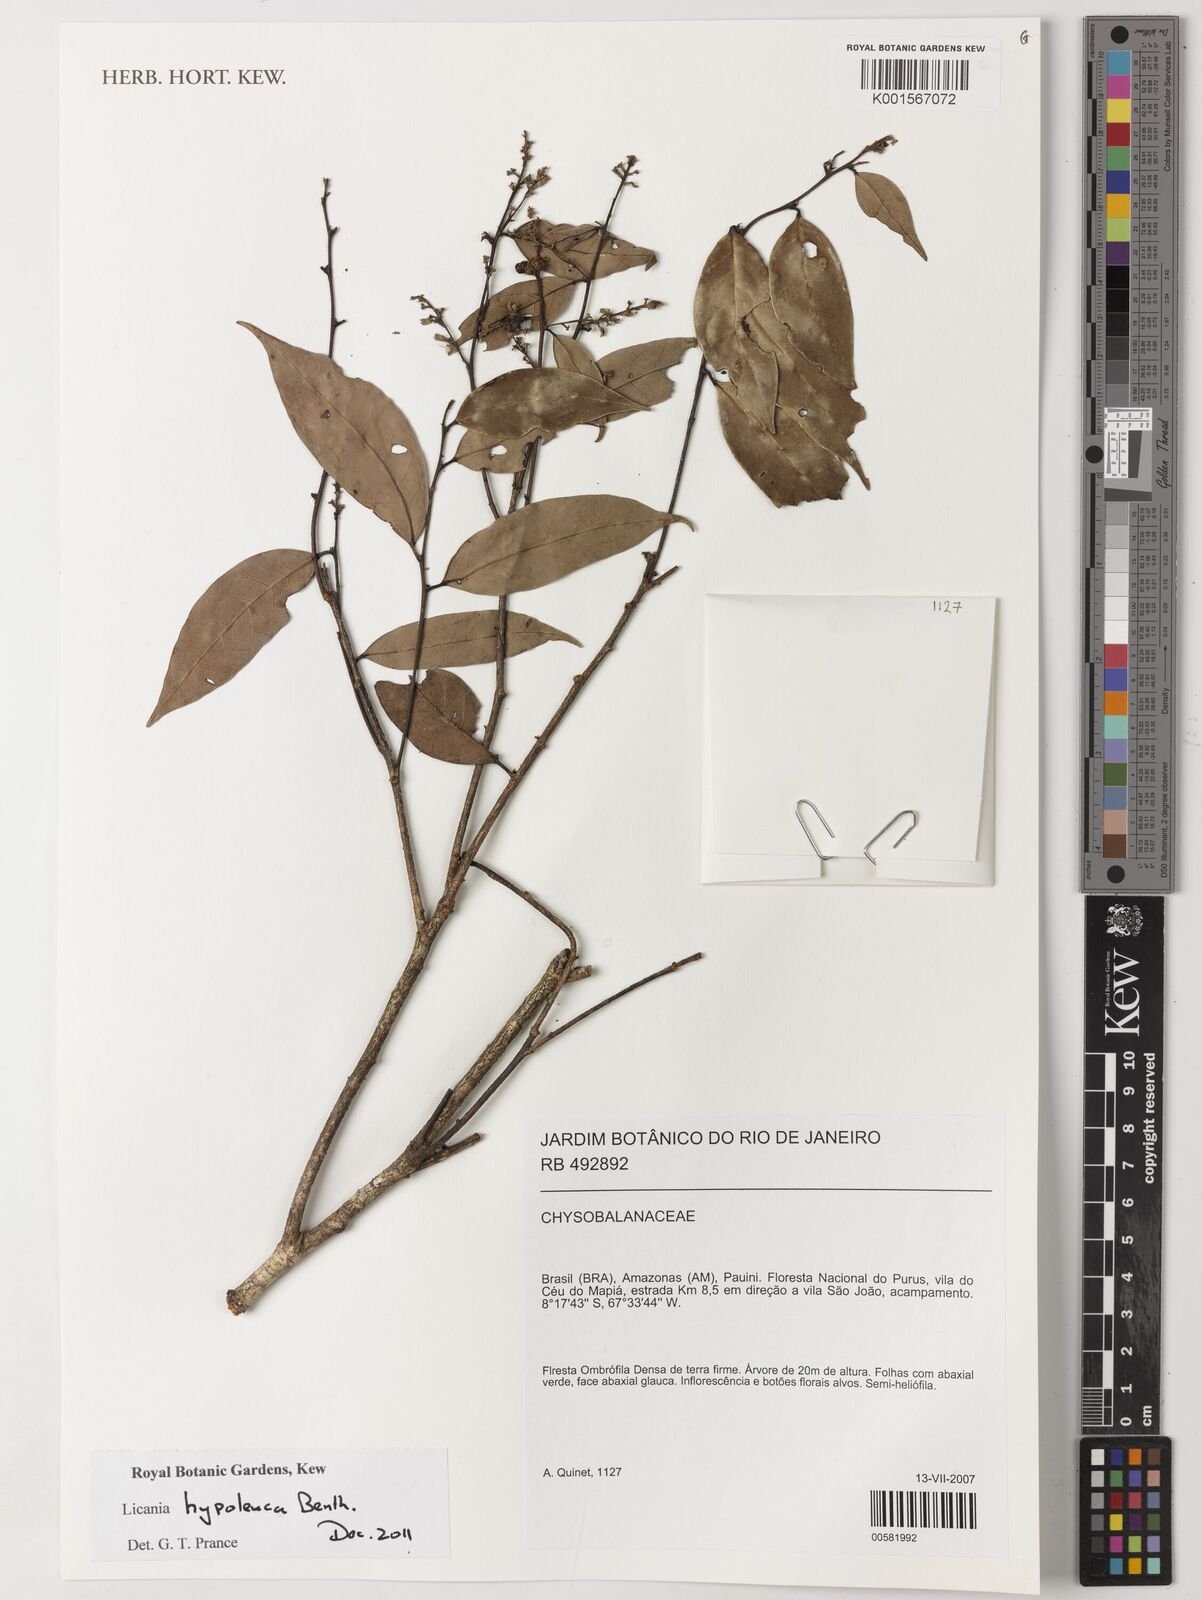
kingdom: Plantae
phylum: Tracheophyta
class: Magnoliopsida
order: Malpighiales
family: Chrysobalanaceae
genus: Licania
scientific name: Licania hypoleuca
